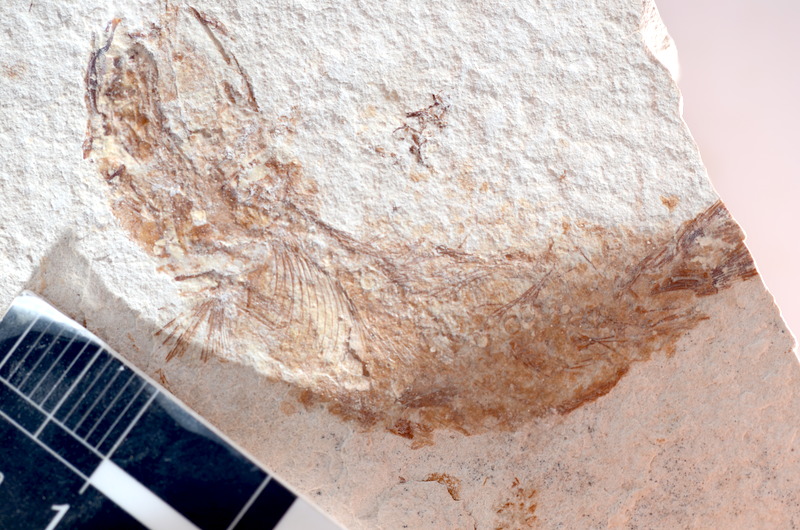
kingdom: Animalia
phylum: Chordata
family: Ascalaboidae
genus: Tharsis
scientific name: Tharsis dubius
